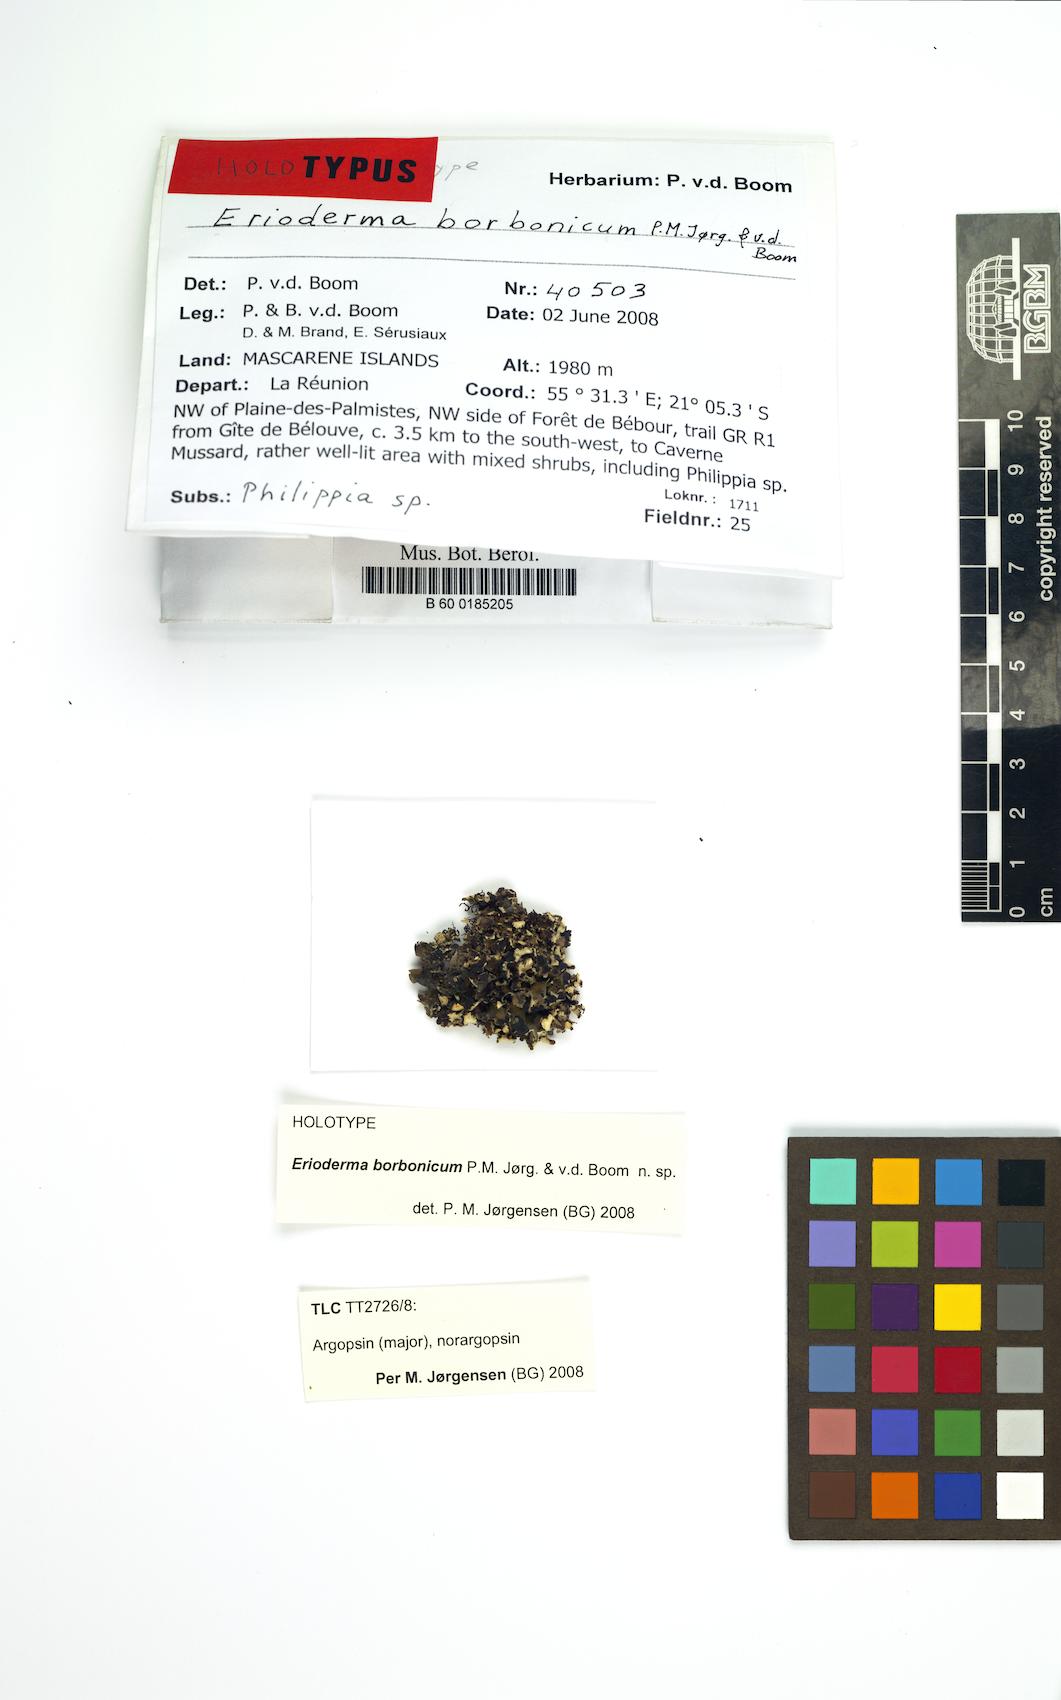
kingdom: Fungi
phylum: Ascomycota
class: Lecanoromycetes
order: Peltigerales
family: Pannariaceae
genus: Erioderma
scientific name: Erioderma borbonicum
